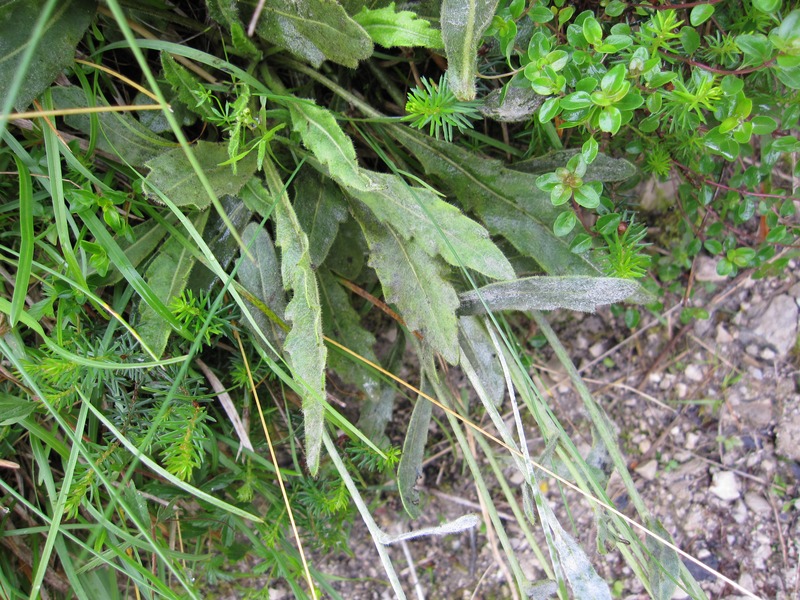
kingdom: Fungi
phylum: Ascomycota
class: Leotiomycetes
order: Helotiales
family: Erysiphaceae
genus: Erysiphe
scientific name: Erysiphe cruciferarum
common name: Brassica powdery mildew
